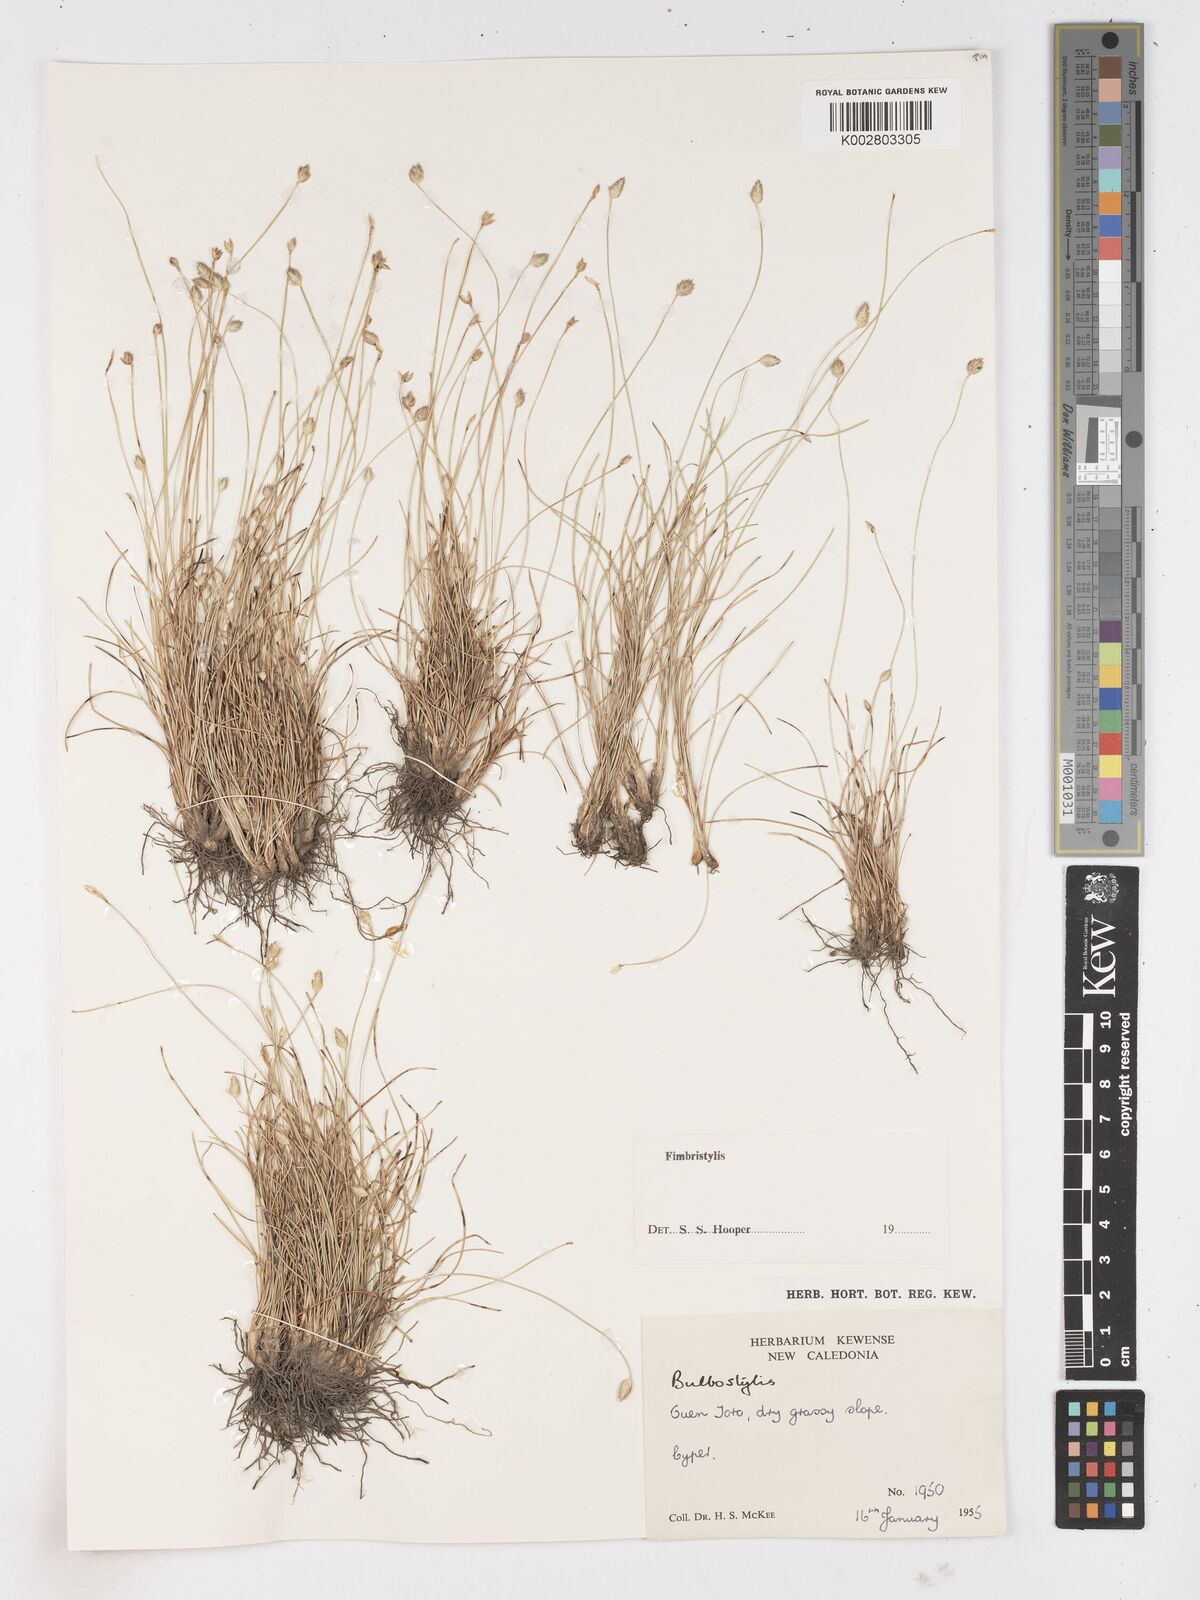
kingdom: Plantae
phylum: Tracheophyta
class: Liliopsida
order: Poales
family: Cyperaceae
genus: Abildgaardia
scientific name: Abildgaardia ovata
